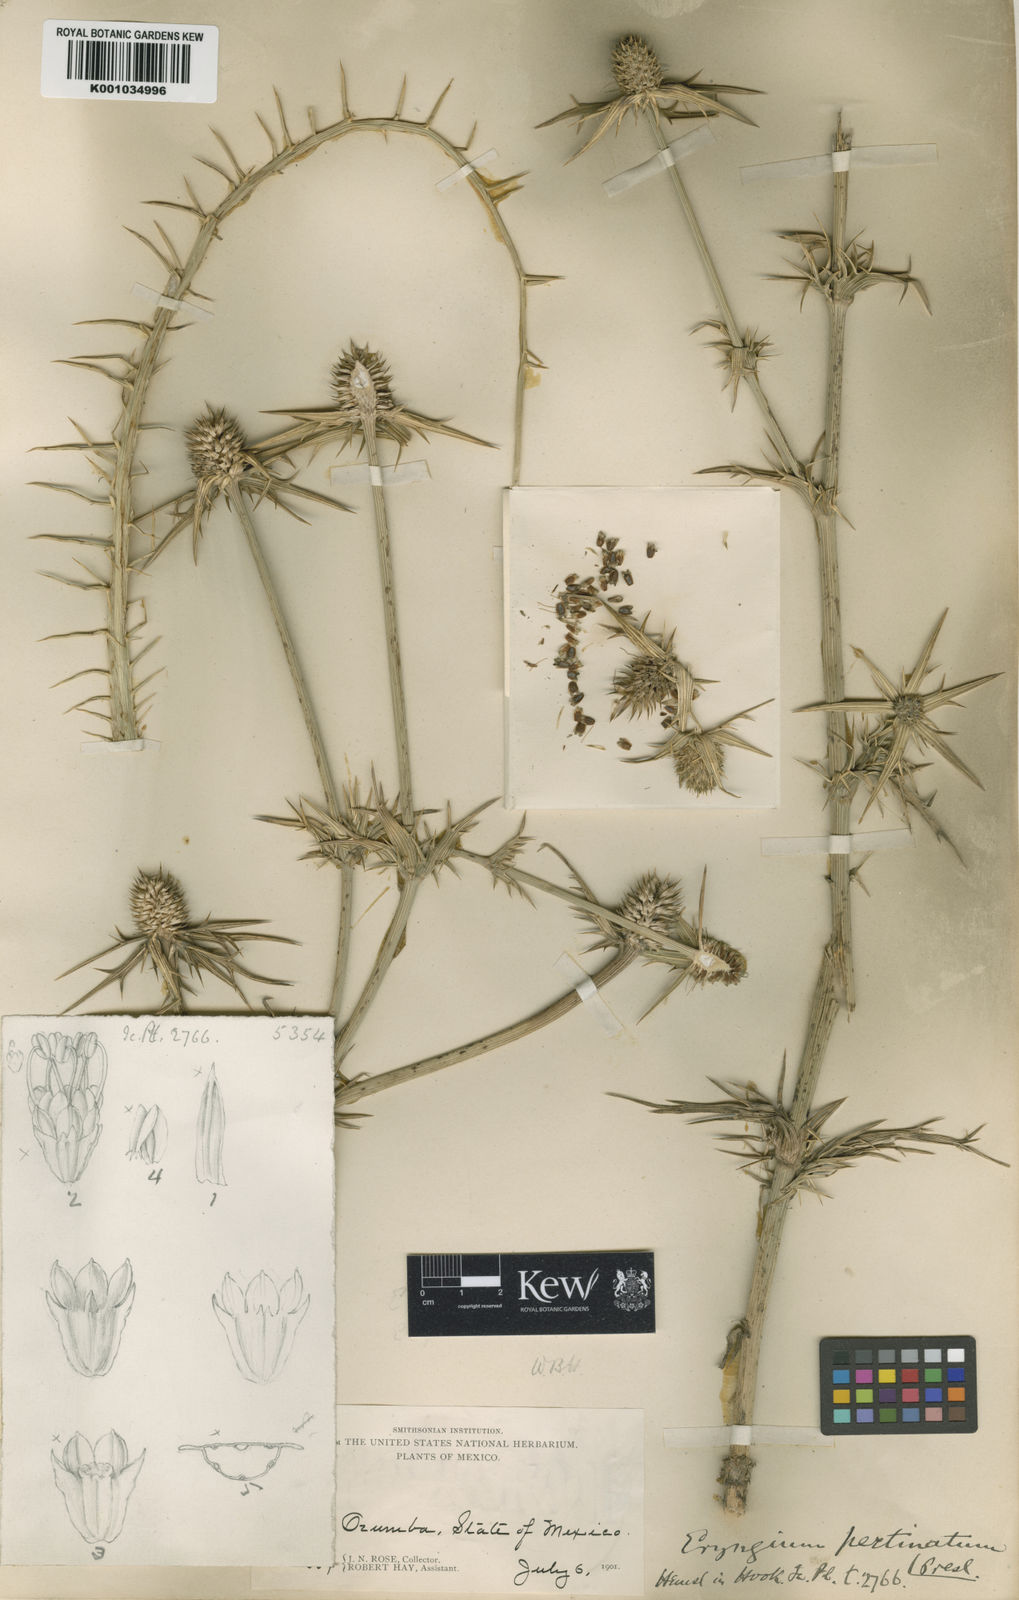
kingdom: Plantae
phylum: Tracheophyta
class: Magnoliopsida
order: Apiales
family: Apiaceae
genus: Eryngium
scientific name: Eryngium pectinatum
